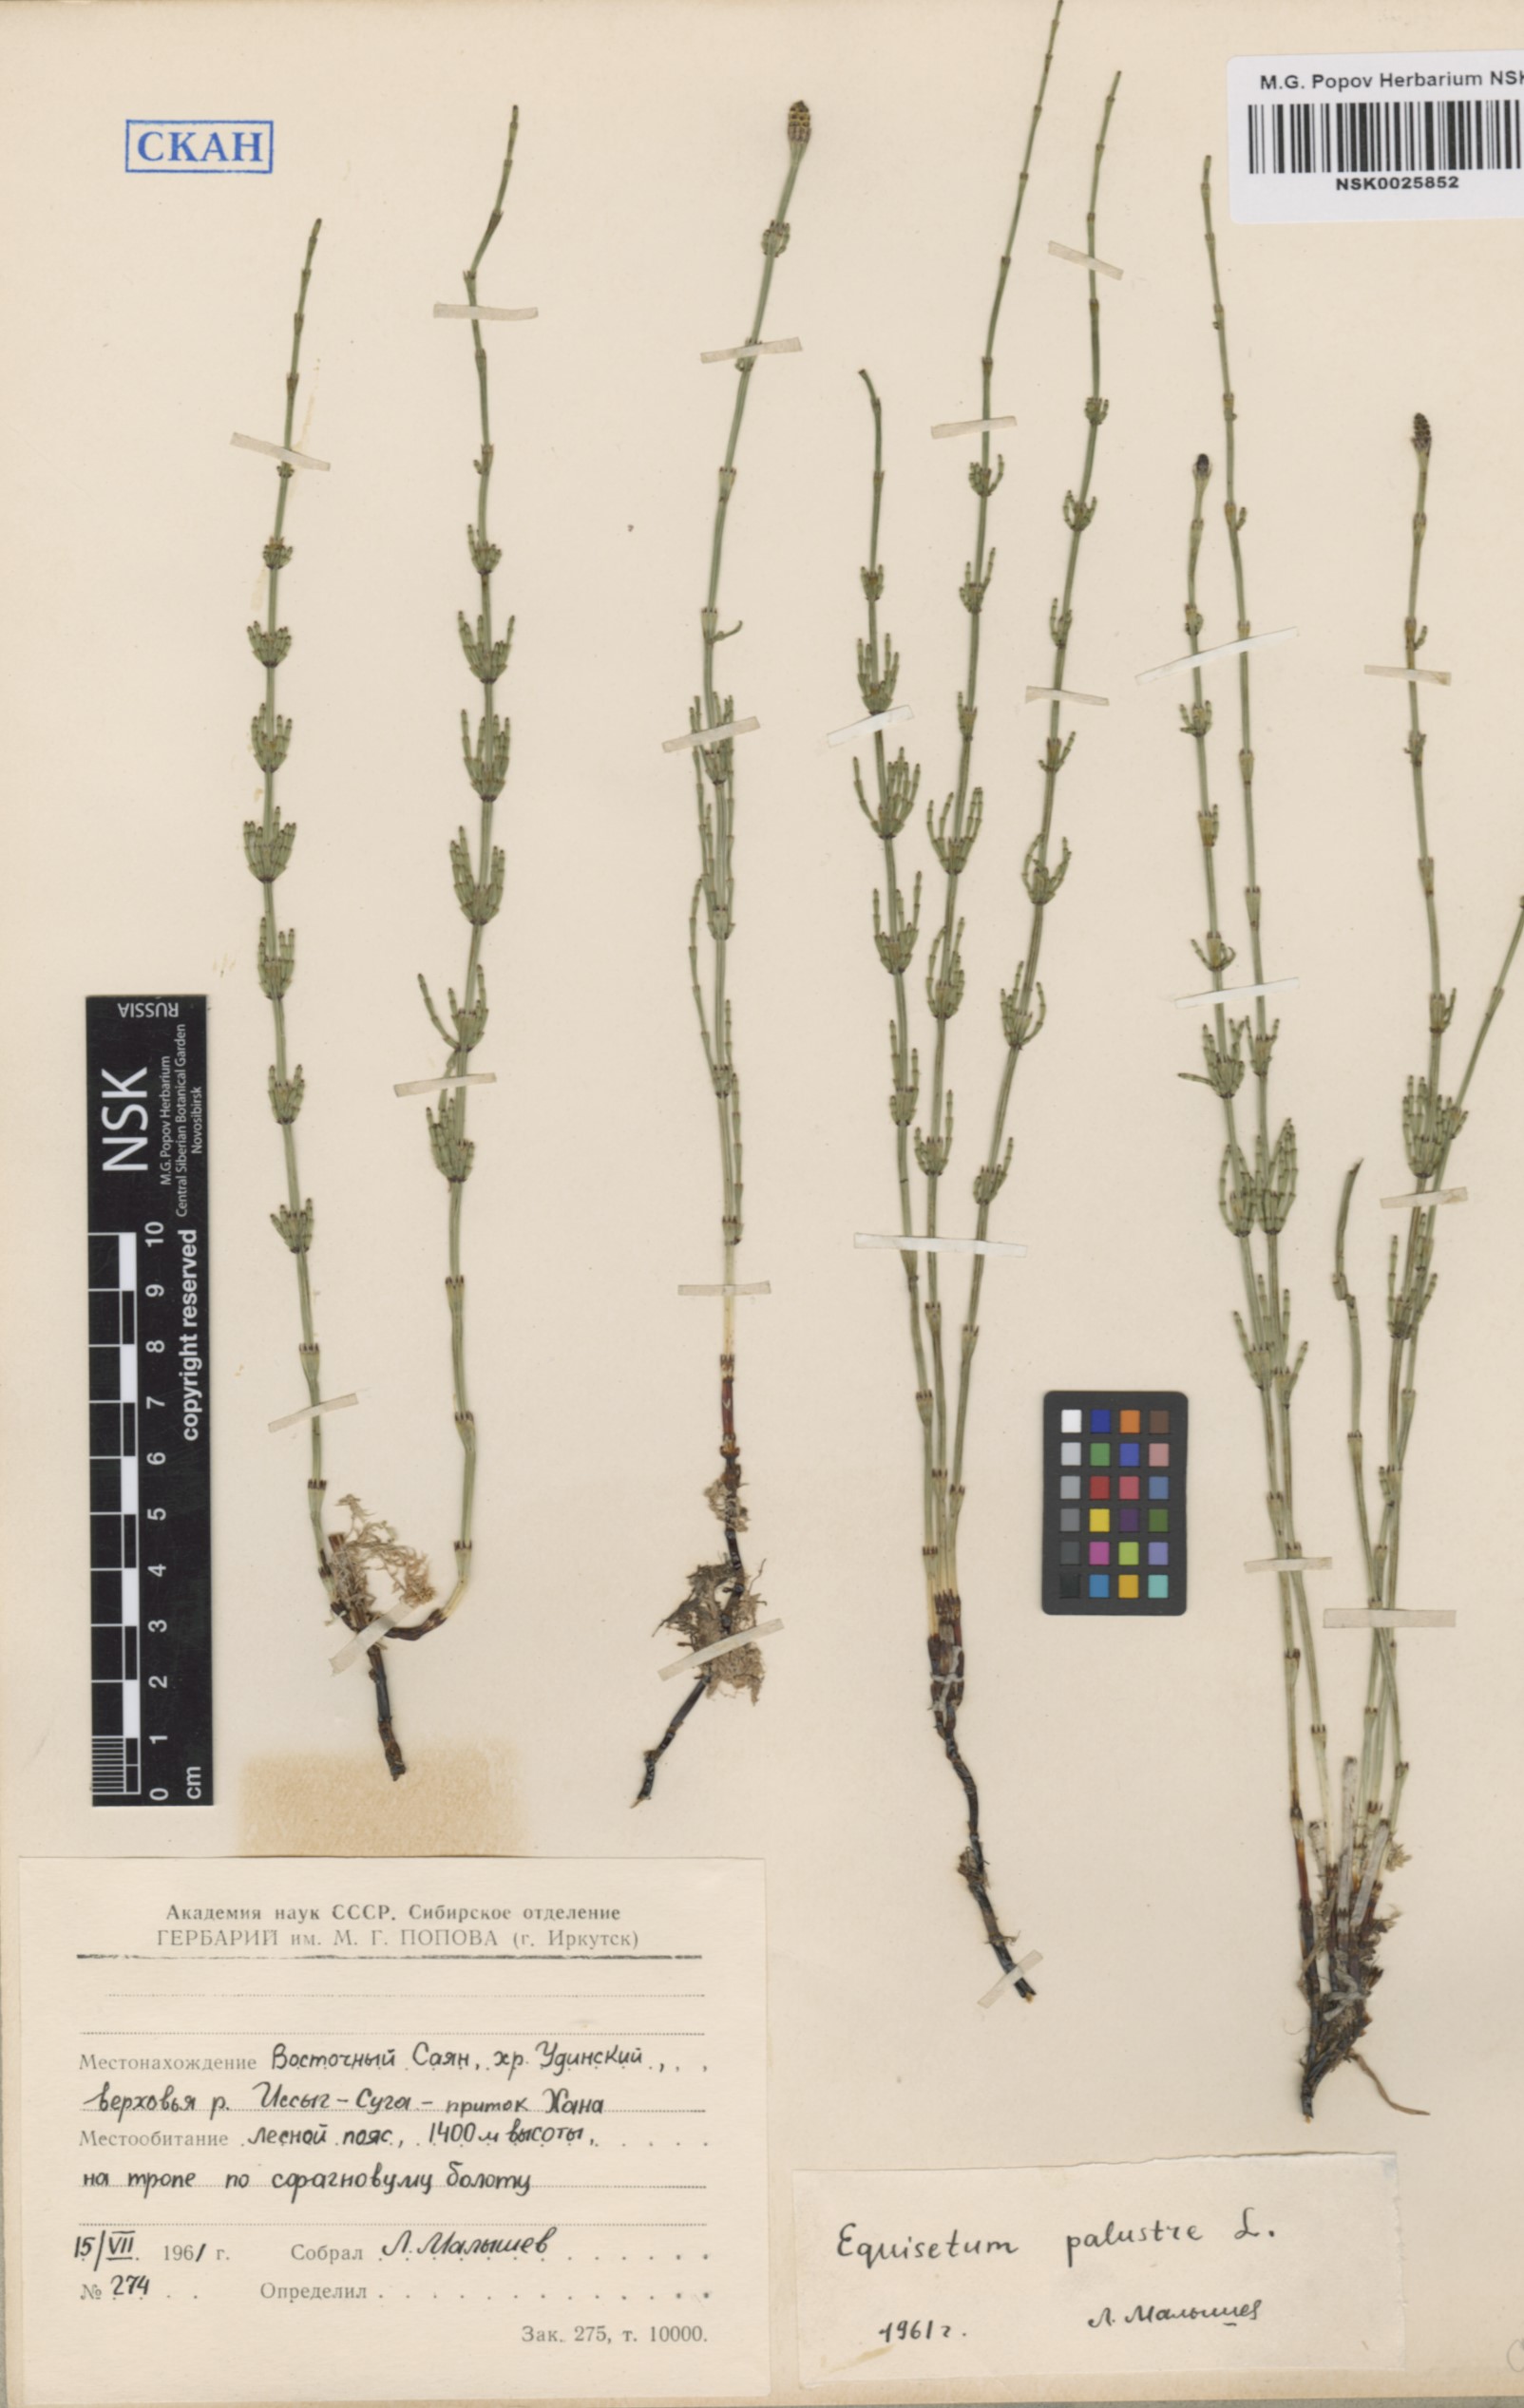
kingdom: Plantae
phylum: Tracheophyta
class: Polypodiopsida
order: Equisetales
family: Equisetaceae
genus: Equisetum
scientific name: Equisetum palustre
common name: Marsh horsetail
